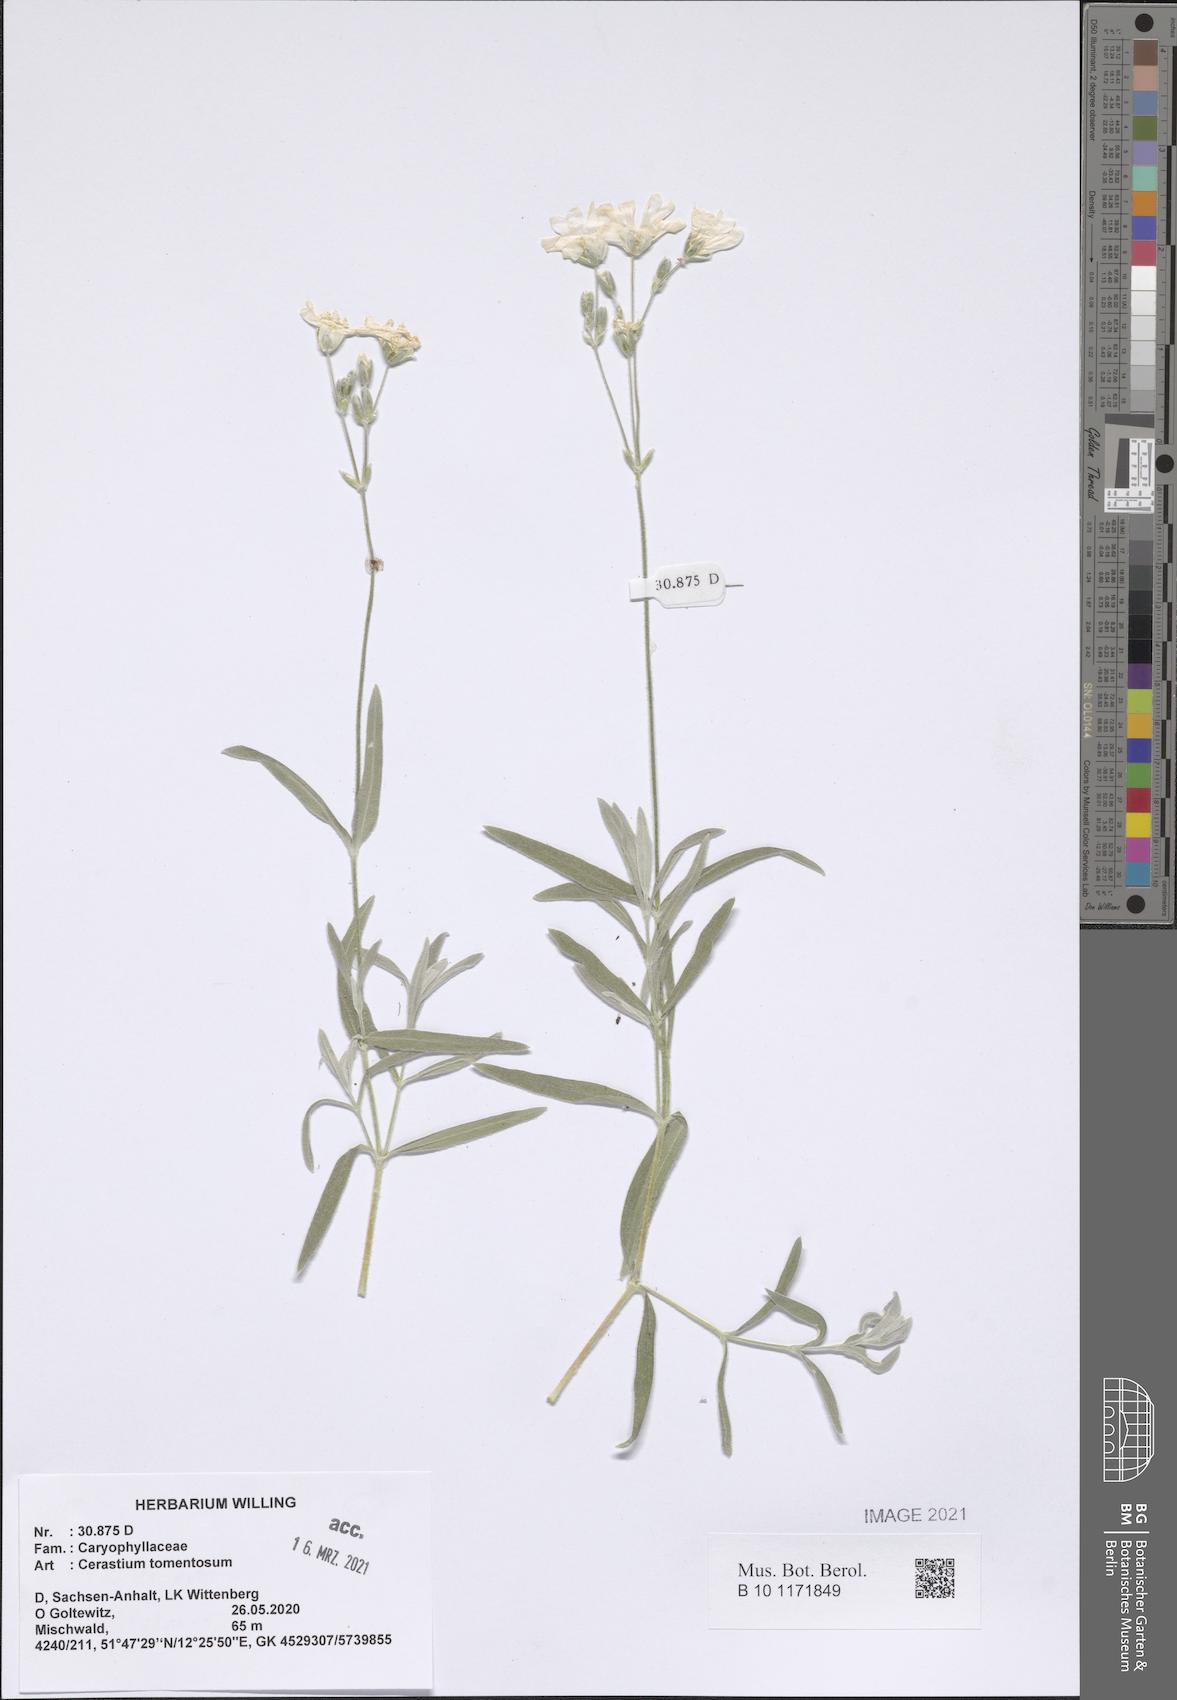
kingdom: Plantae
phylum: Tracheophyta
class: Magnoliopsida
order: Caryophyllales
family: Caryophyllaceae
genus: Cerastium
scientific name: Cerastium tomentosum
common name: Snow-in-summer
